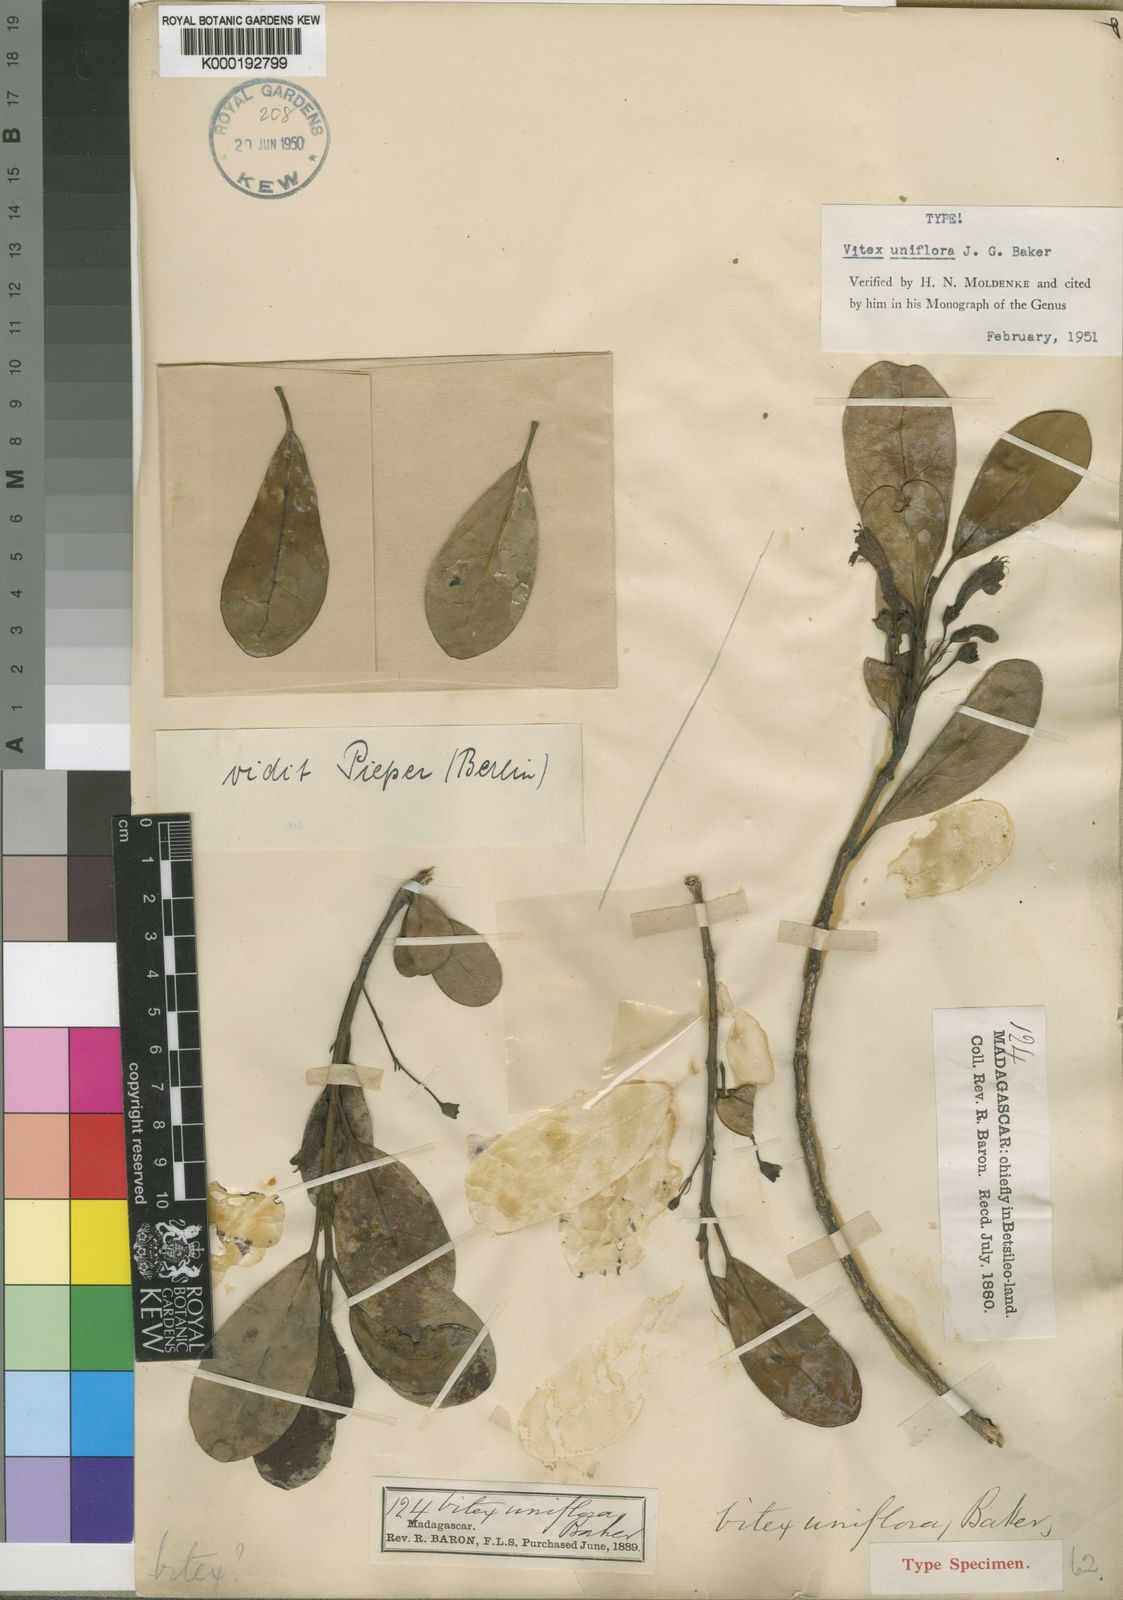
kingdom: Plantae
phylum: Tracheophyta
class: Magnoliopsida
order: Lamiales
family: Lamiaceae
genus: Vitex
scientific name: Vitex uniflora
